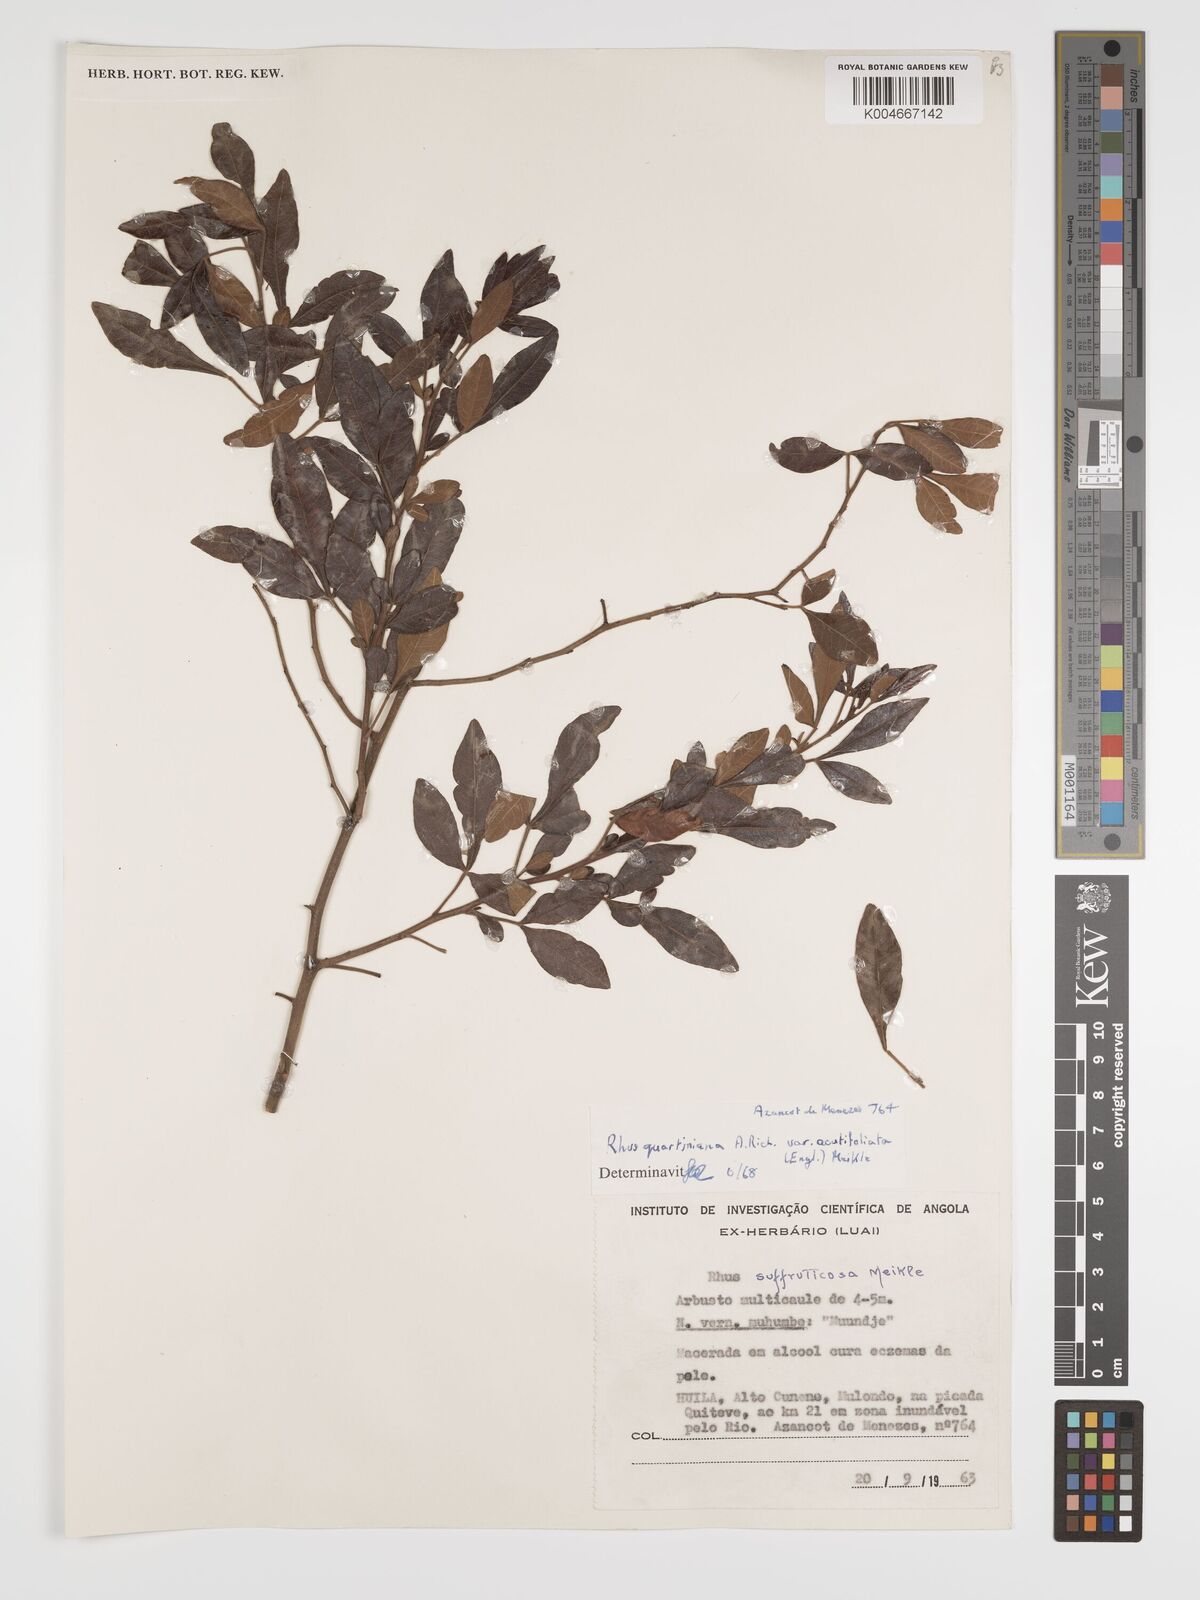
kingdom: Plantae
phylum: Tracheophyta
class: Magnoliopsida
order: Sapindales
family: Anacardiaceae
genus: Searsia
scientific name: Searsia quartiniana
